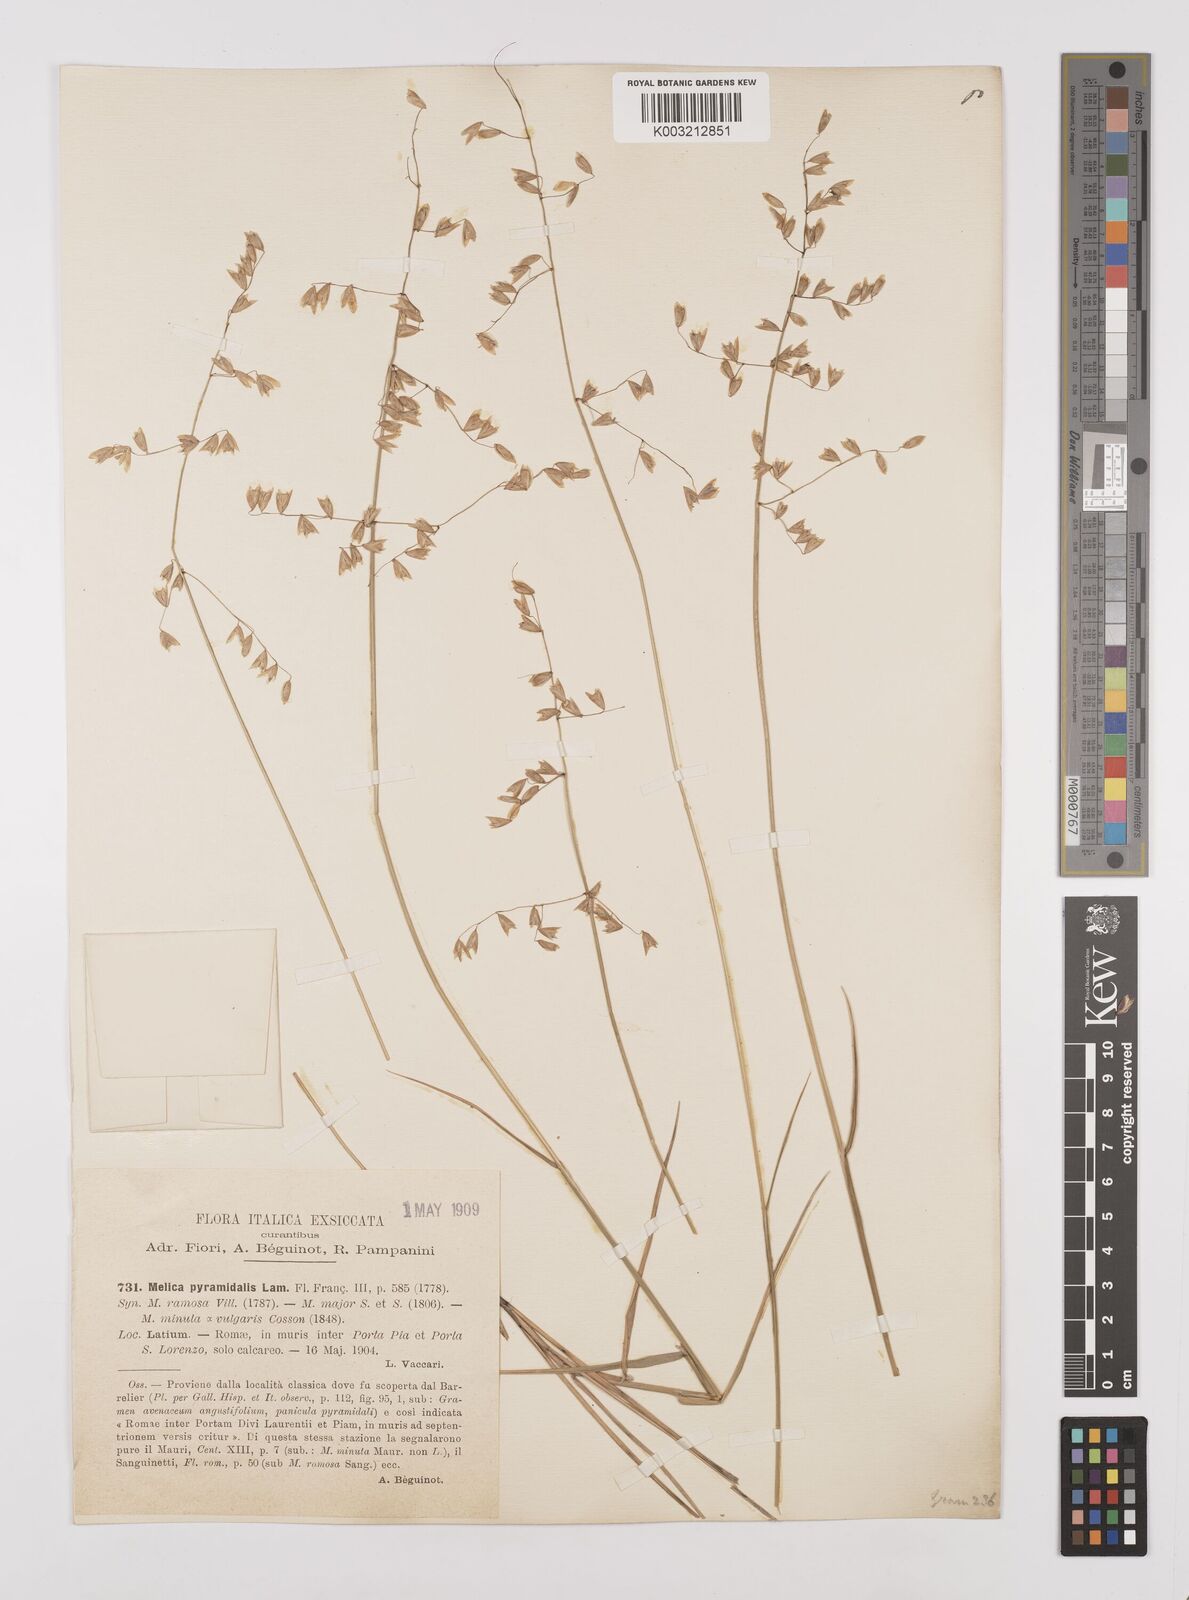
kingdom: Plantae
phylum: Tracheophyta
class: Liliopsida
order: Poales
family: Poaceae
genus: Melica
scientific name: Melica minuta
